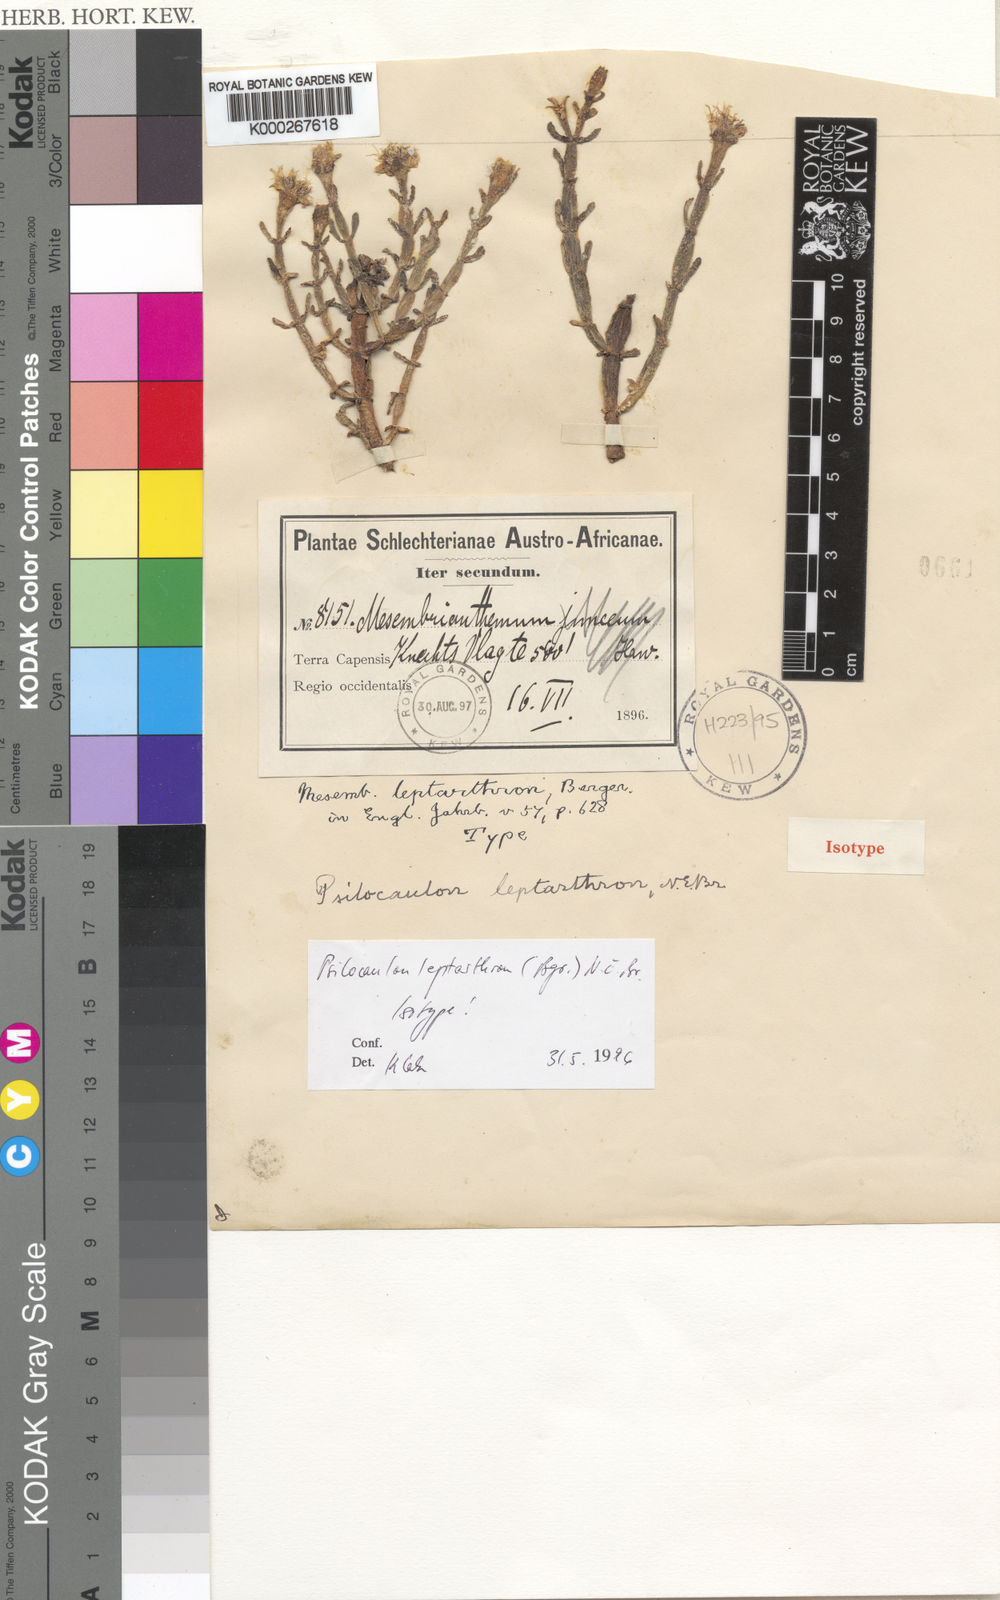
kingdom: Plantae
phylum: Tracheophyta
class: Magnoliopsida
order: Caryophyllales
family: Aizoaceae
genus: Mesembryanthemum
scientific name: Mesembryanthemum leptarthron
